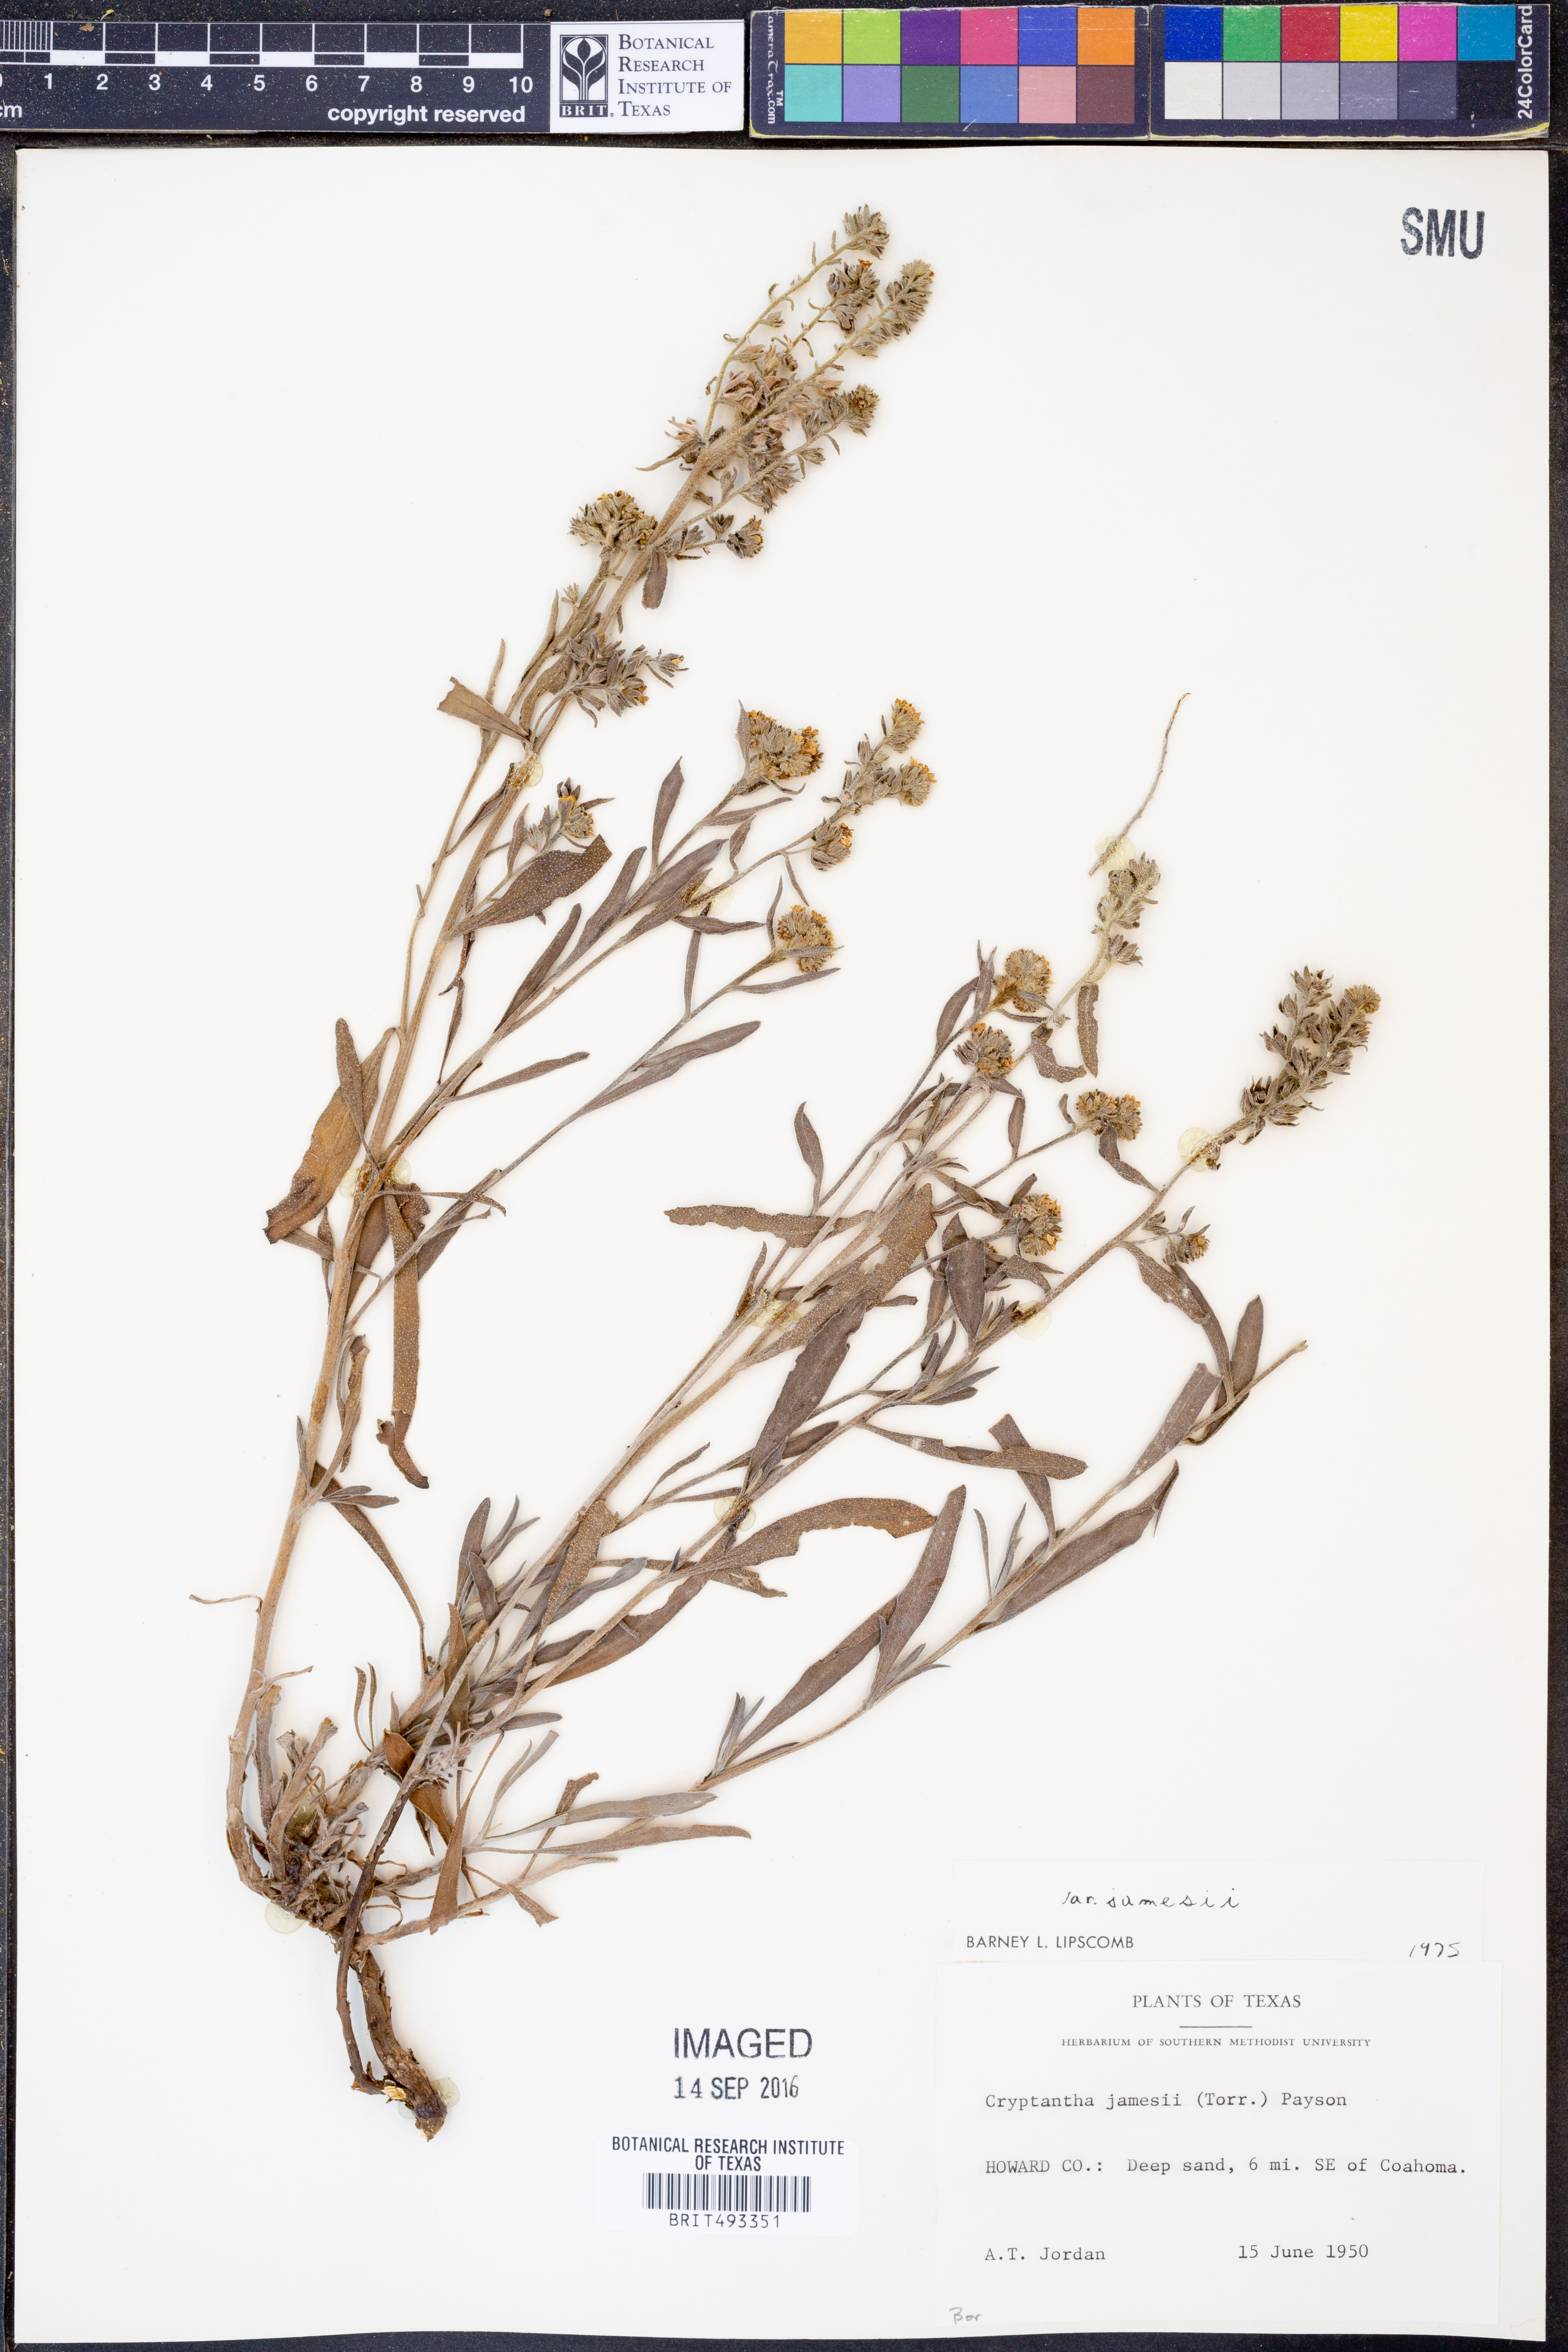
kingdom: Plantae
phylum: Tracheophyta
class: Magnoliopsida
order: Boraginales
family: Boraginaceae
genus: Oreocarya
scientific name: Oreocarya suffruticosa
